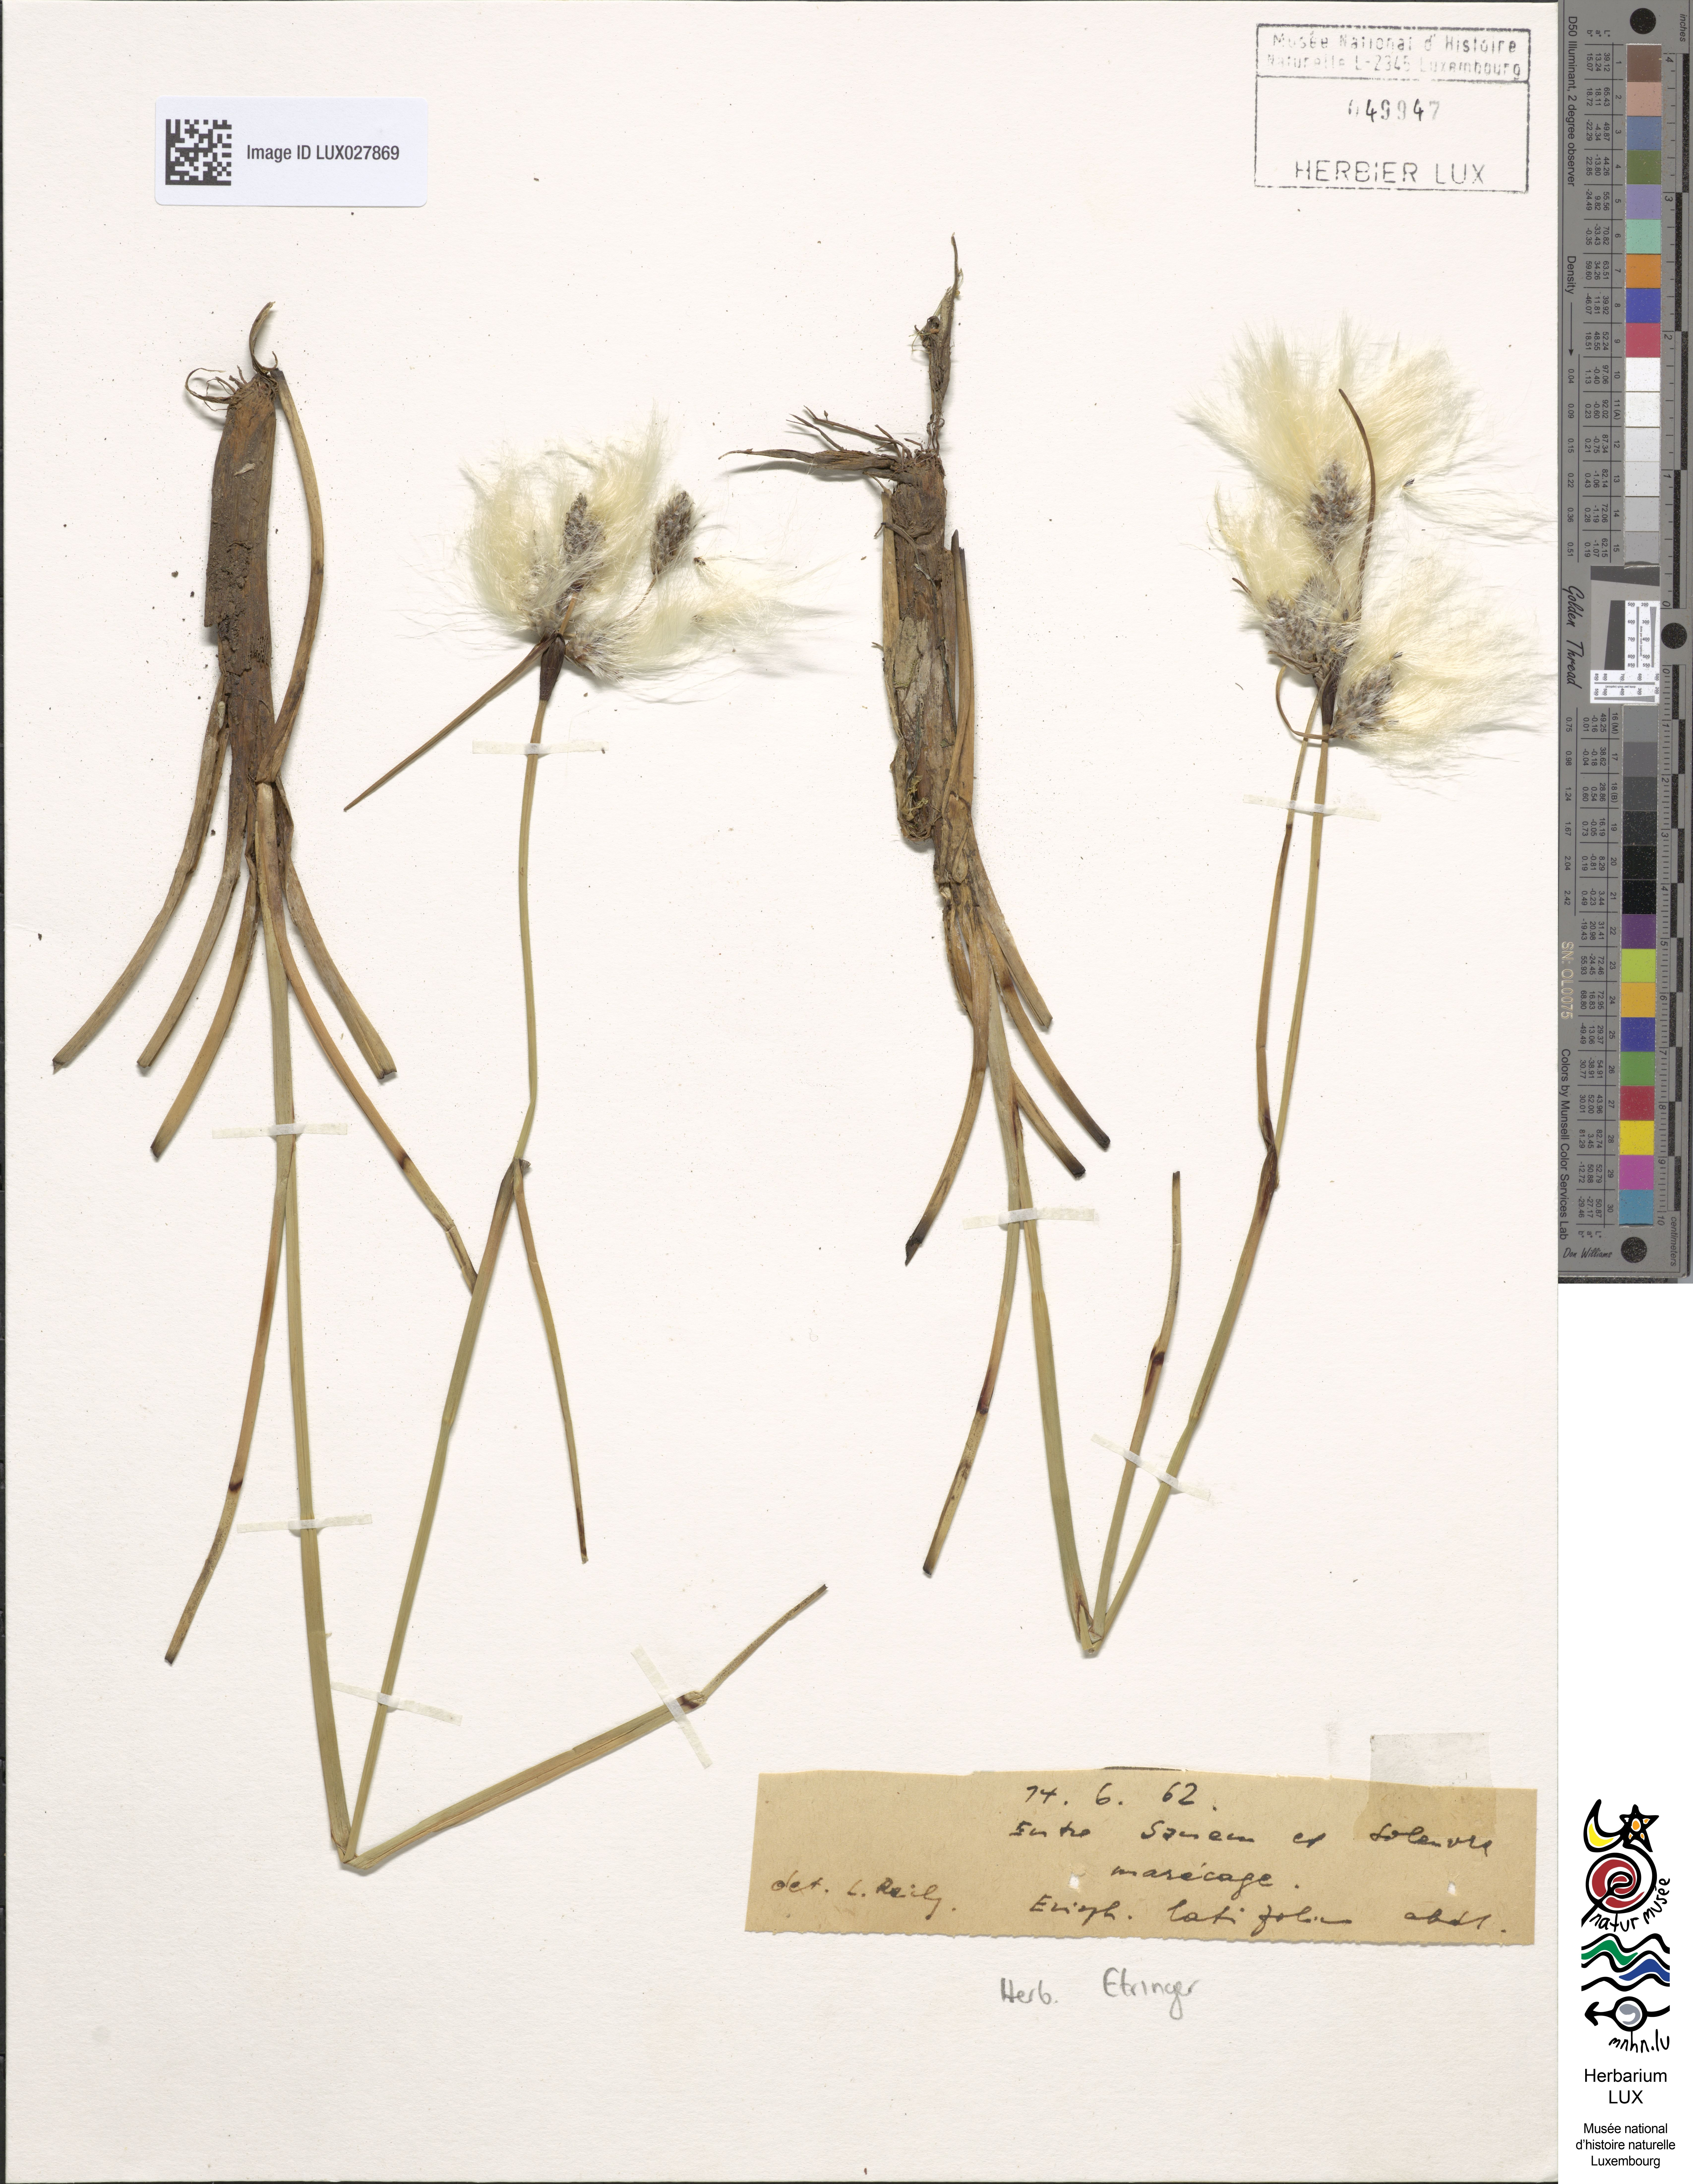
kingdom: Plantae
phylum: Tracheophyta
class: Liliopsida
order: Poales
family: Cyperaceae
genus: Eriophorum
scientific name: Eriophorum latifolium
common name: Broad-leaved cottongrass
